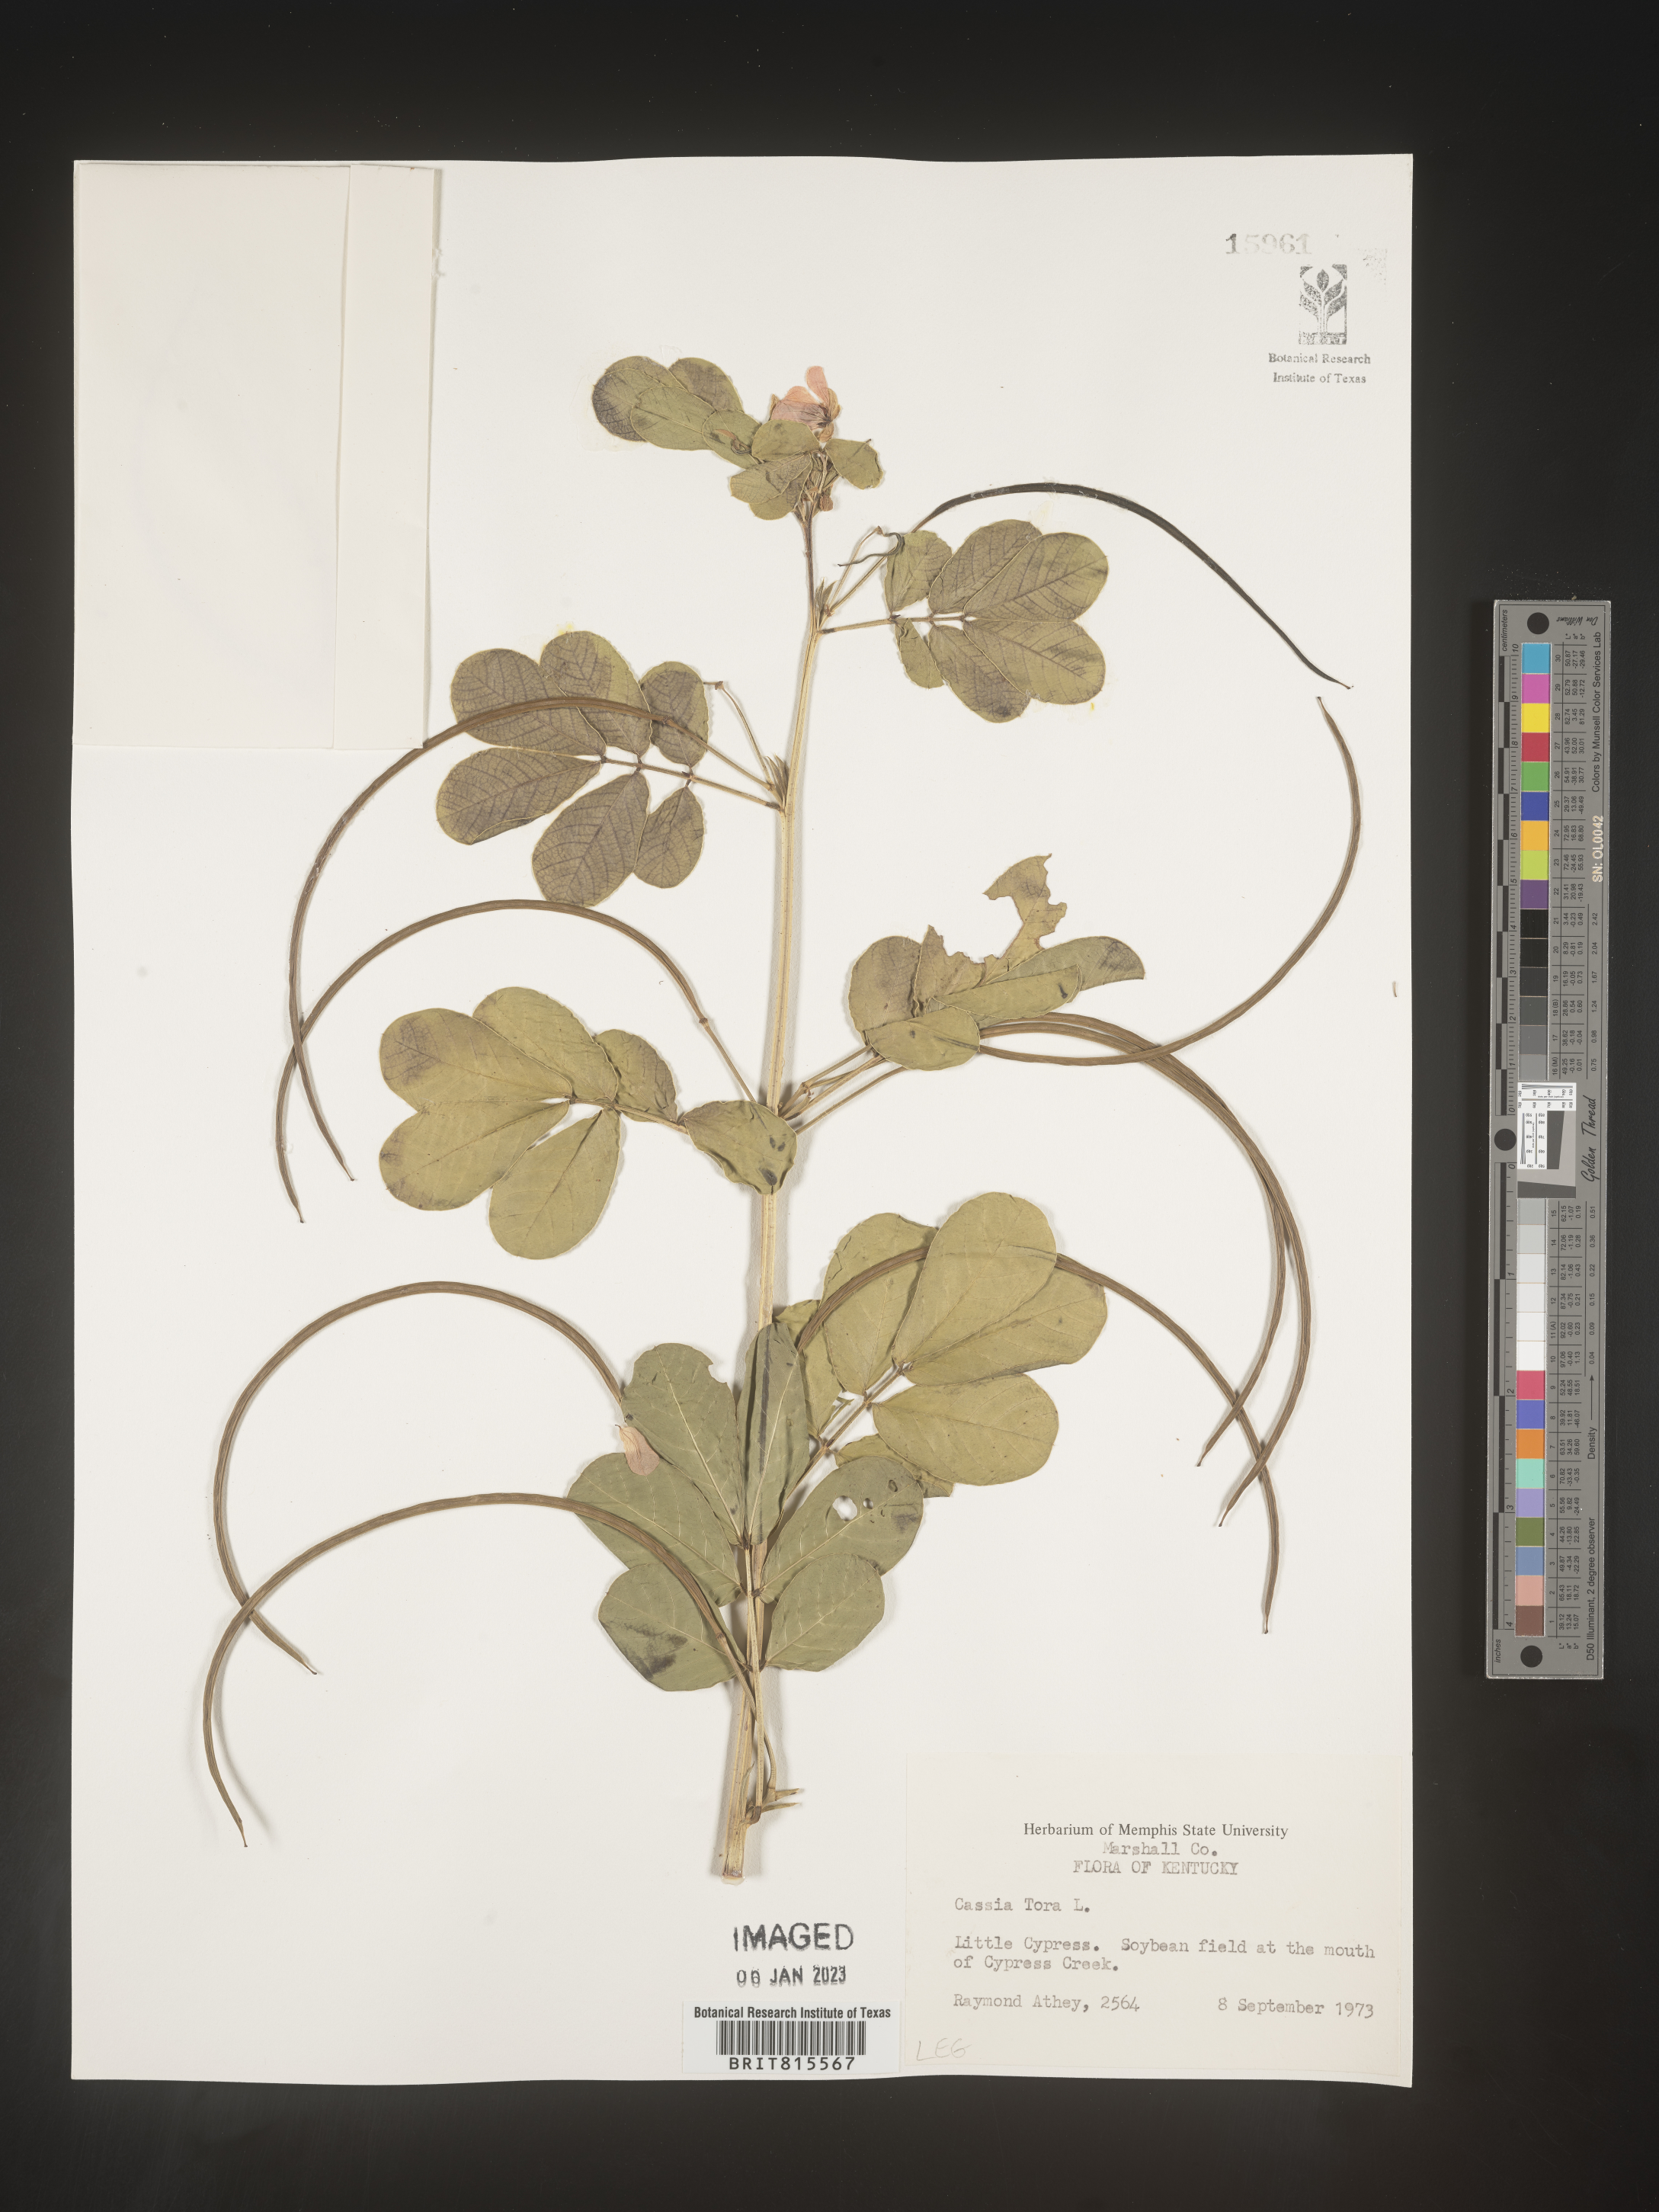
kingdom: Plantae
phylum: Tracheophyta
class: Magnoliopsida
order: Fabales
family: Fabaceae
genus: Senna
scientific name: Senna tora
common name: Sickle senna
